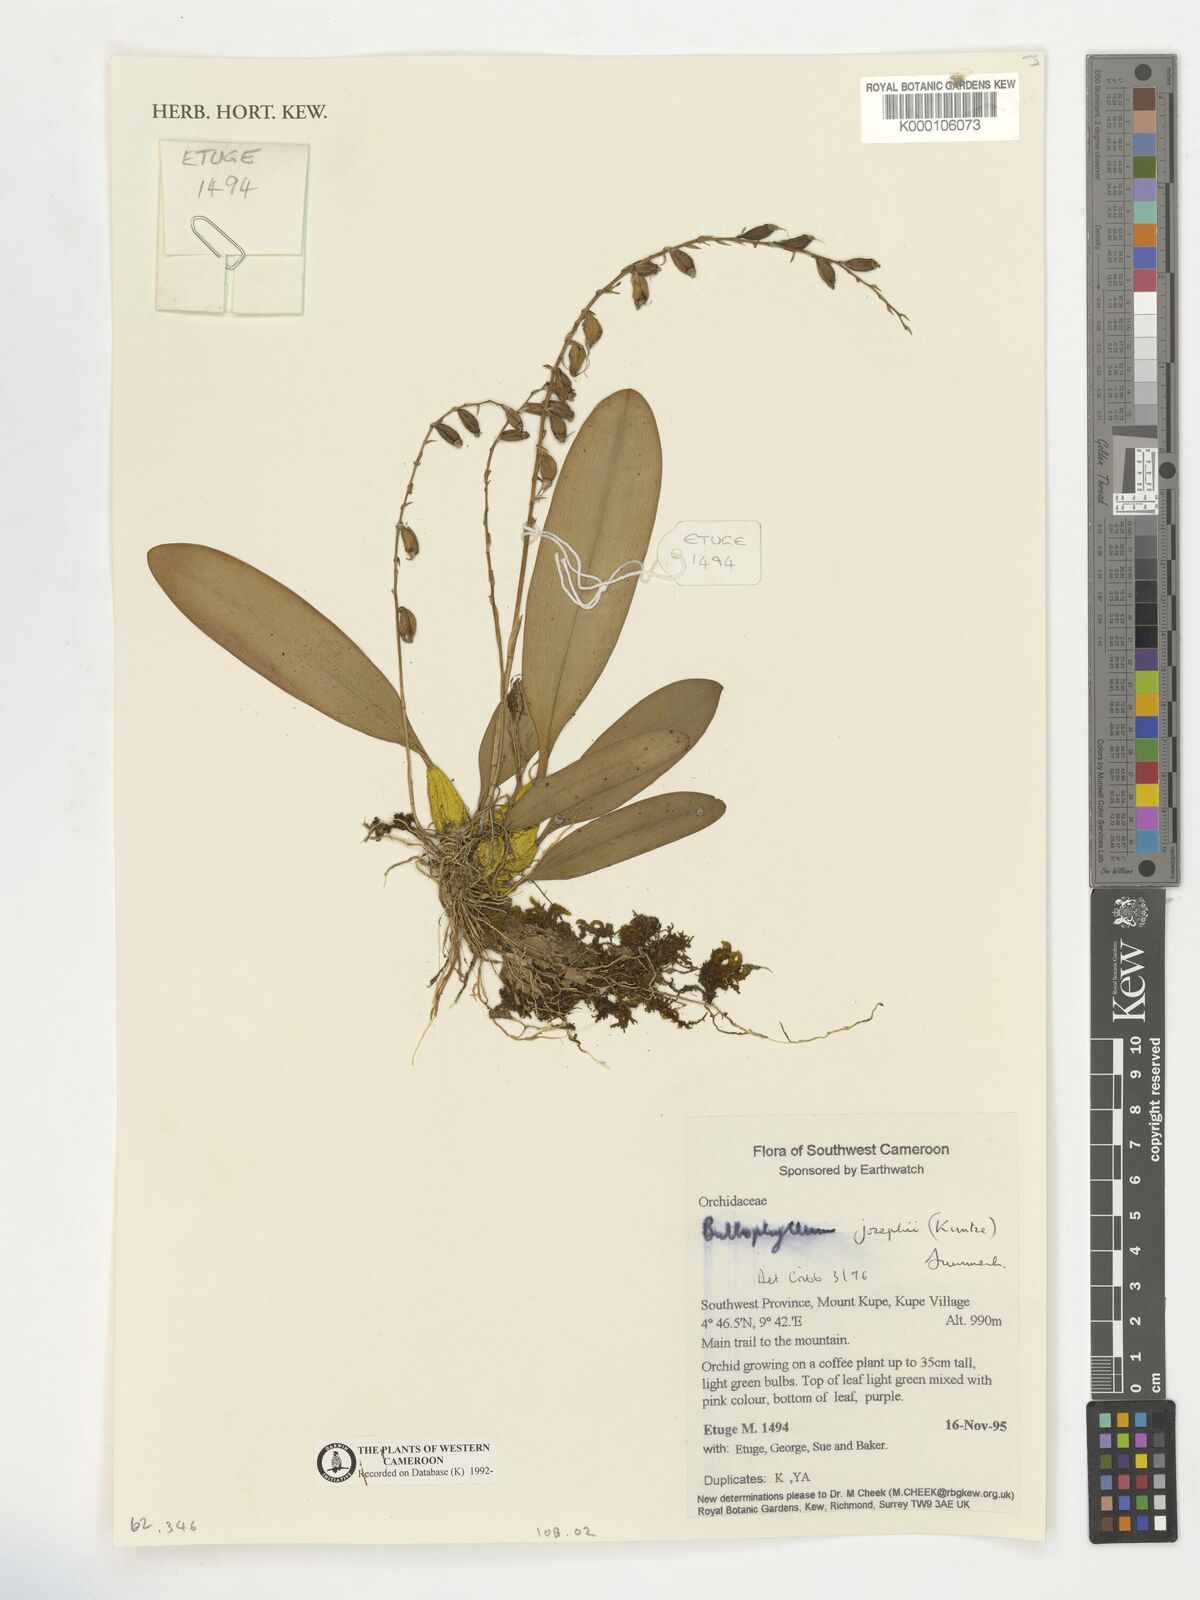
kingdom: Plantae
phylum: Tracheophyta
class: Liliopsida
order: Asparagales
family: Orchidaceae
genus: Bulbophyllum
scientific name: Bulbophyllum josephi
